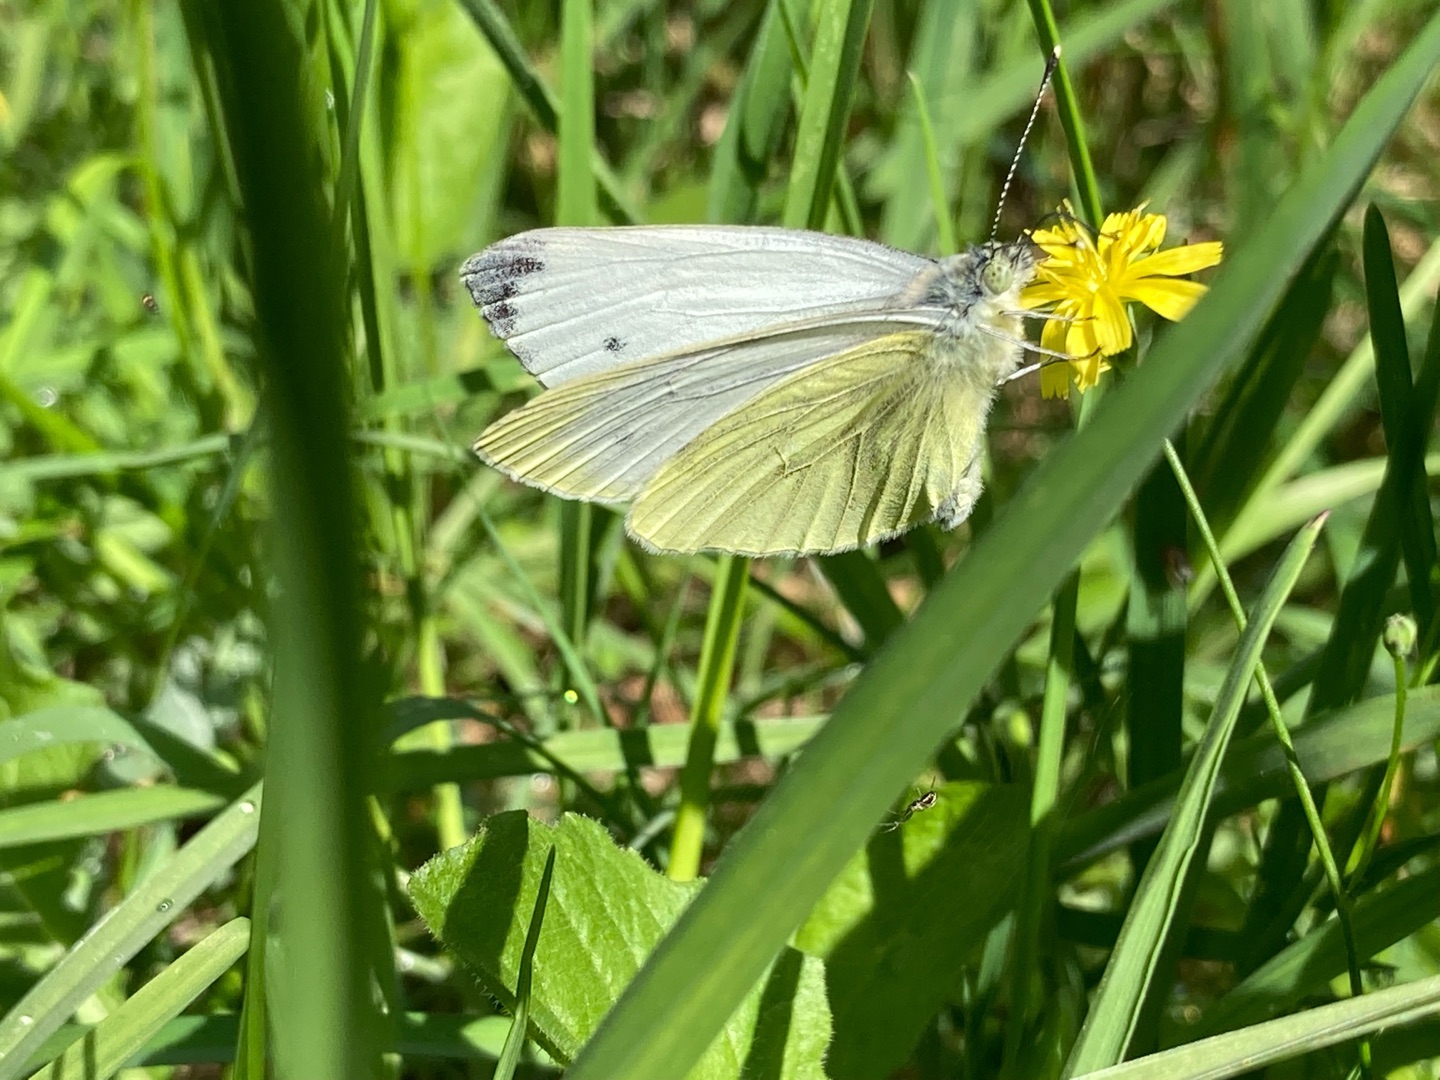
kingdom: Animalia
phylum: Arthropoda
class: Insecta
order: Lepidoptera
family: Pieridae
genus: Pieris
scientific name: Pieris napi
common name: Grønåret kålsommerfugl
